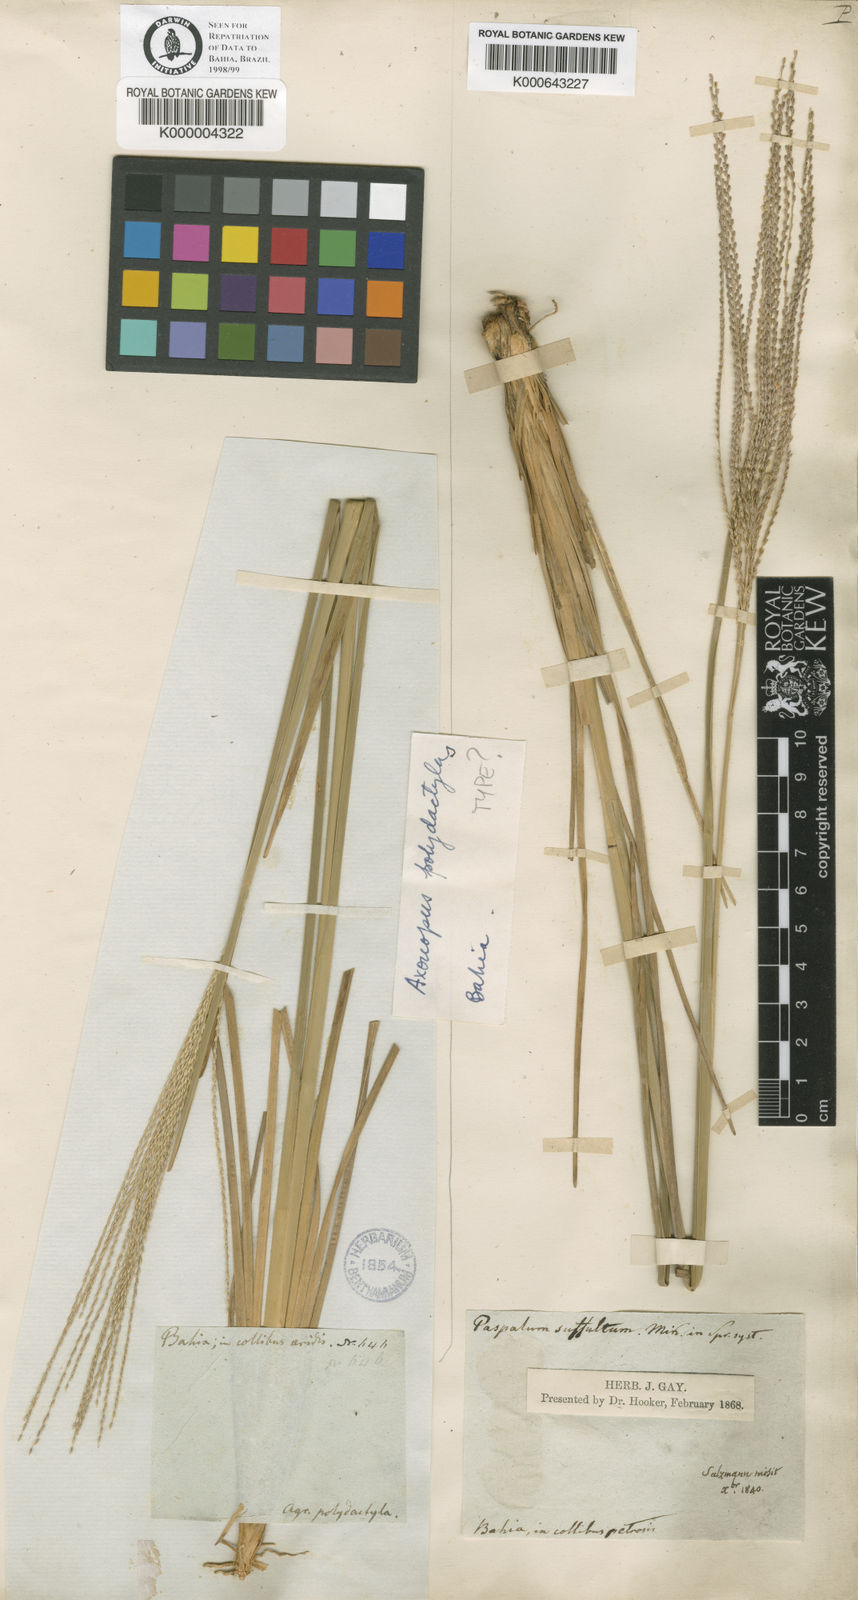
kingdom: Plantae
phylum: Tracheophyta
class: Liliopsida
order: Poales
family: Poaceae
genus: Axonopus
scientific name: Axonopus polydactylus
